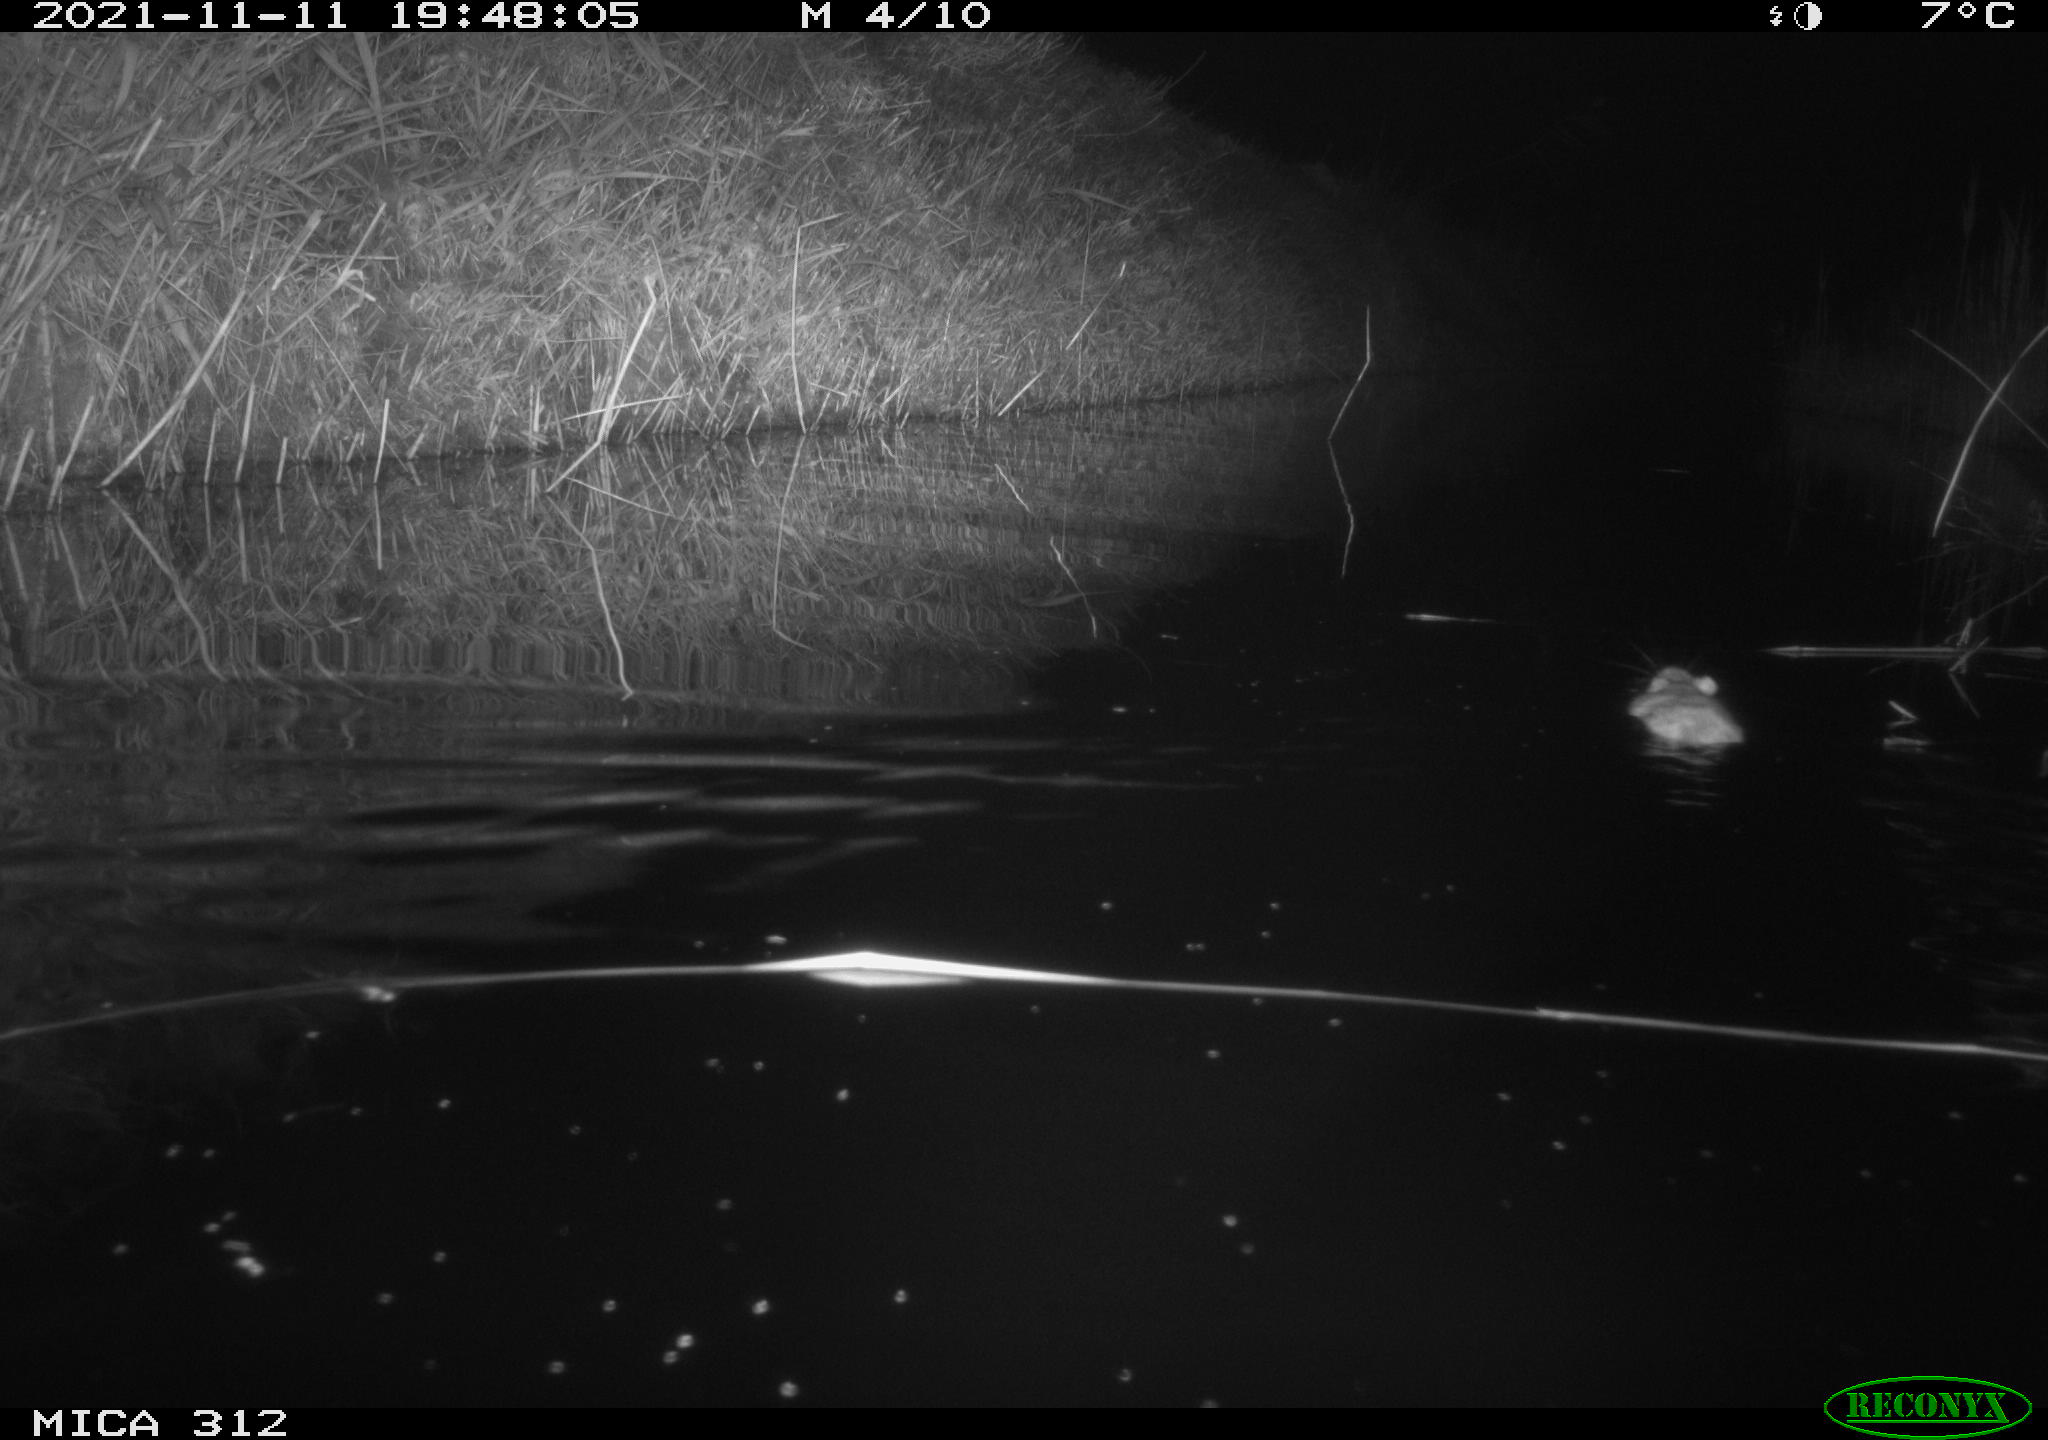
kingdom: Animalia
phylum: Chordata
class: Mammalia
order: Rodentia
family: Muridae
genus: Rattus
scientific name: Rattus norvegicus
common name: Brown rat
